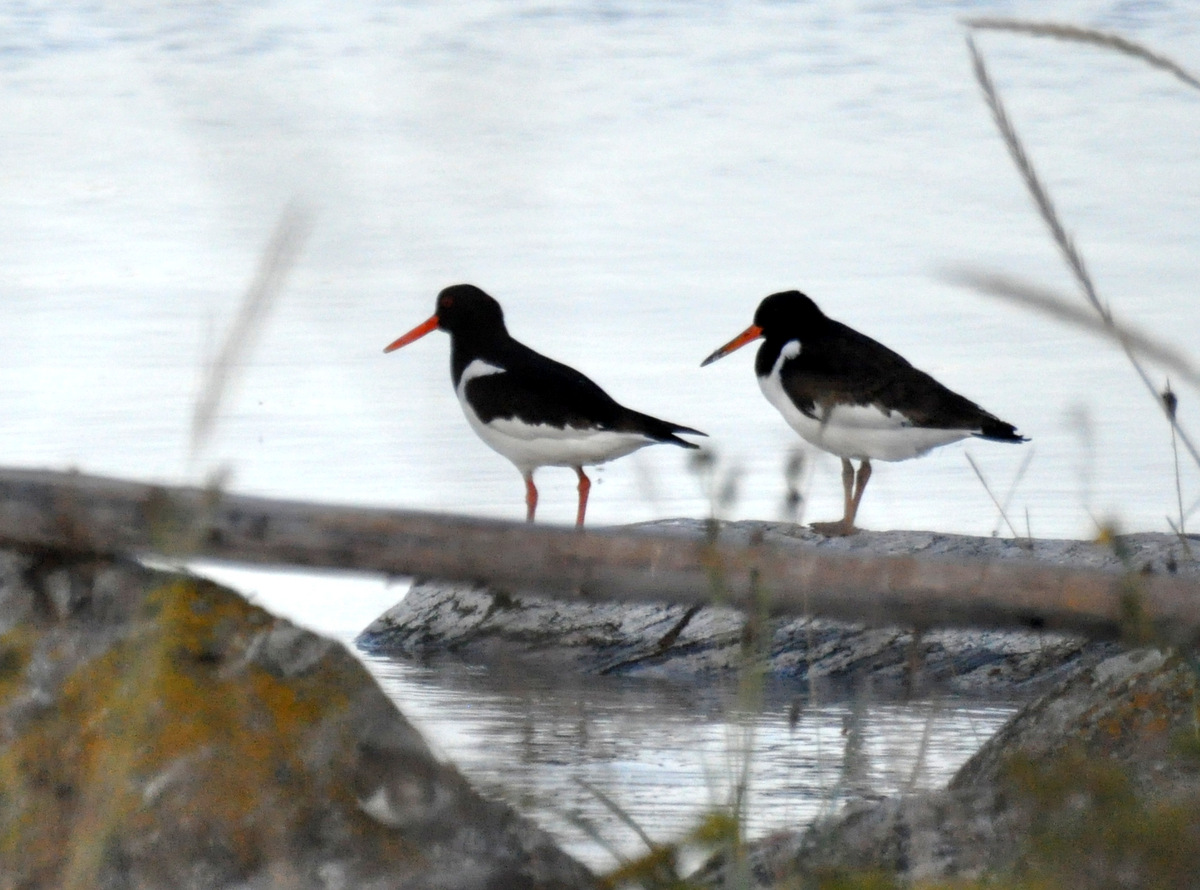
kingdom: Animalia
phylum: Chordata
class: Aves
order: Charadriiformes
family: Haematopodidae
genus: Haematopus
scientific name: Haematopus ostralegus
